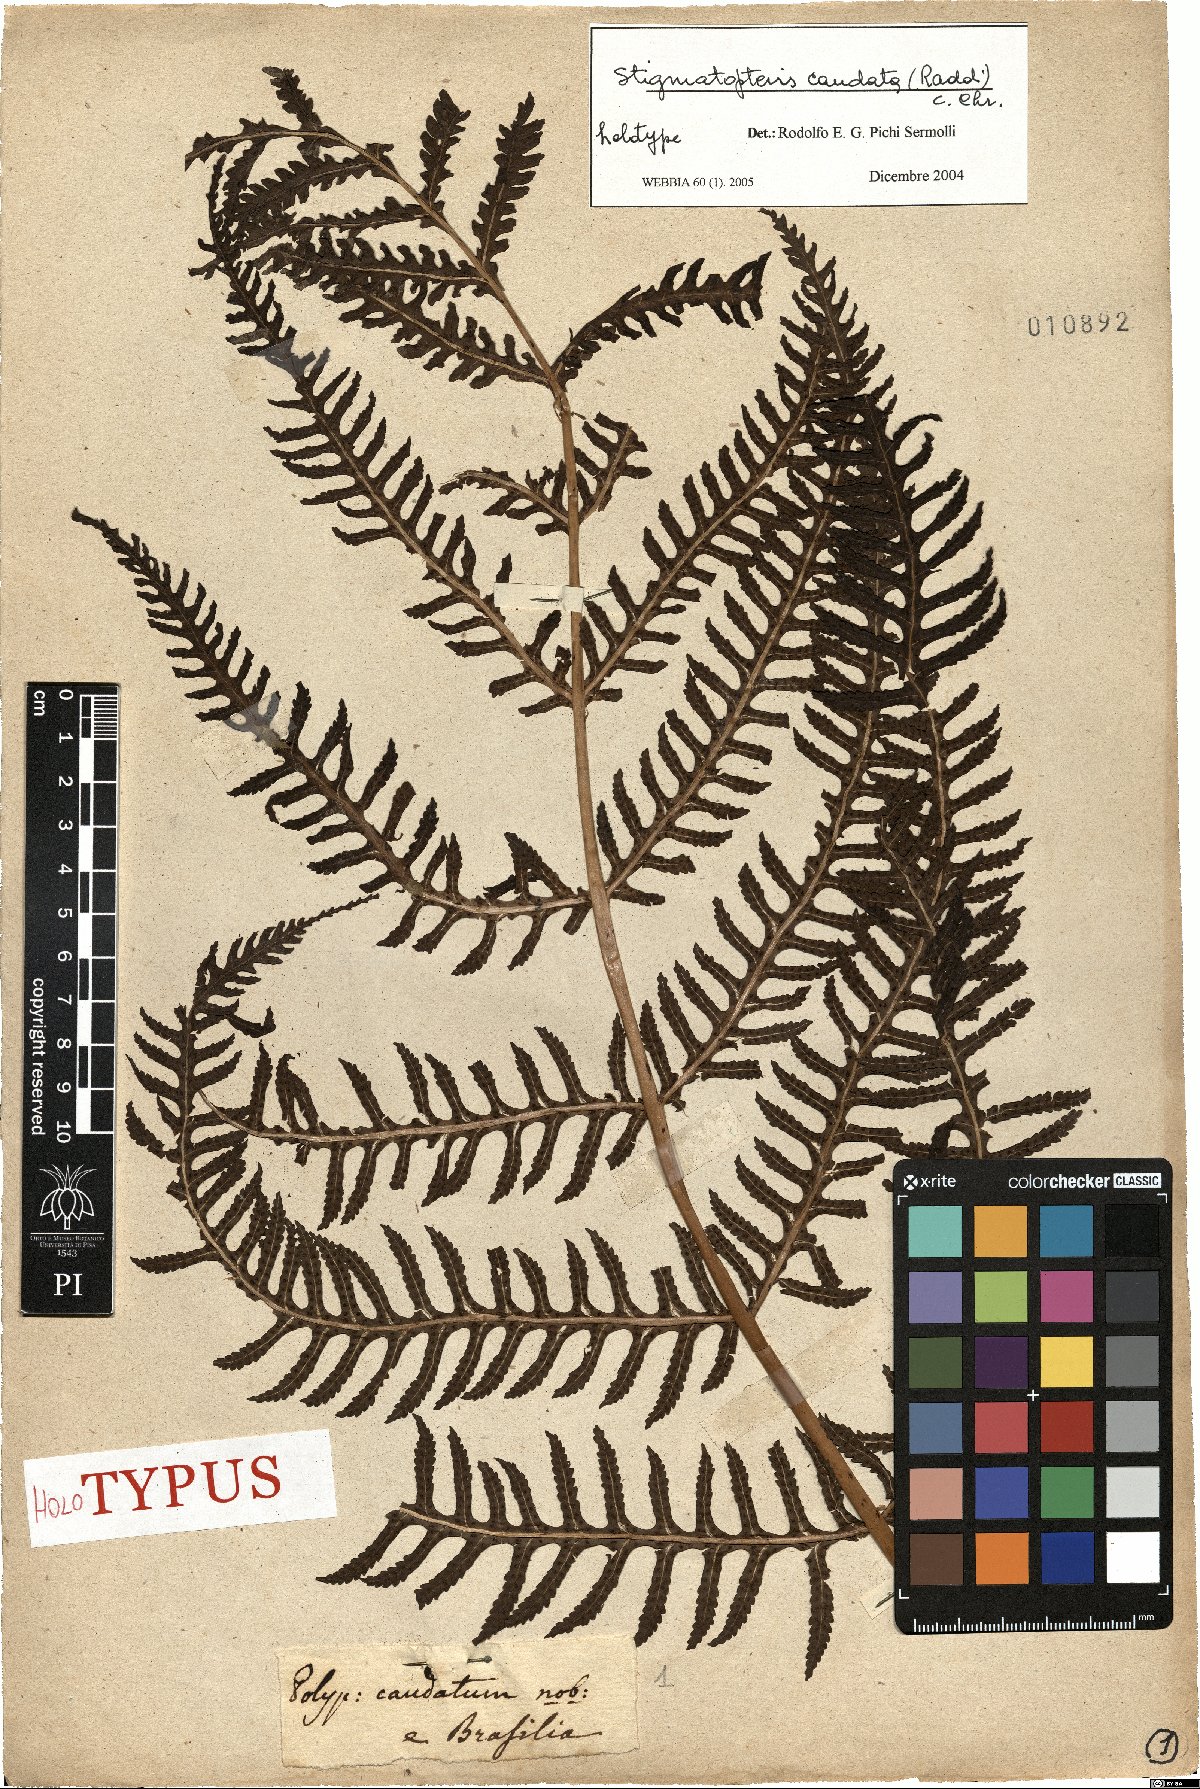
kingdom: Plantae
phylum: Tracheophyta
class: Polypodiopsida
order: Polypodiales
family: Dryopteridaceae
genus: Stigmatopteris
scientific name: Stigmatopteris caudata
